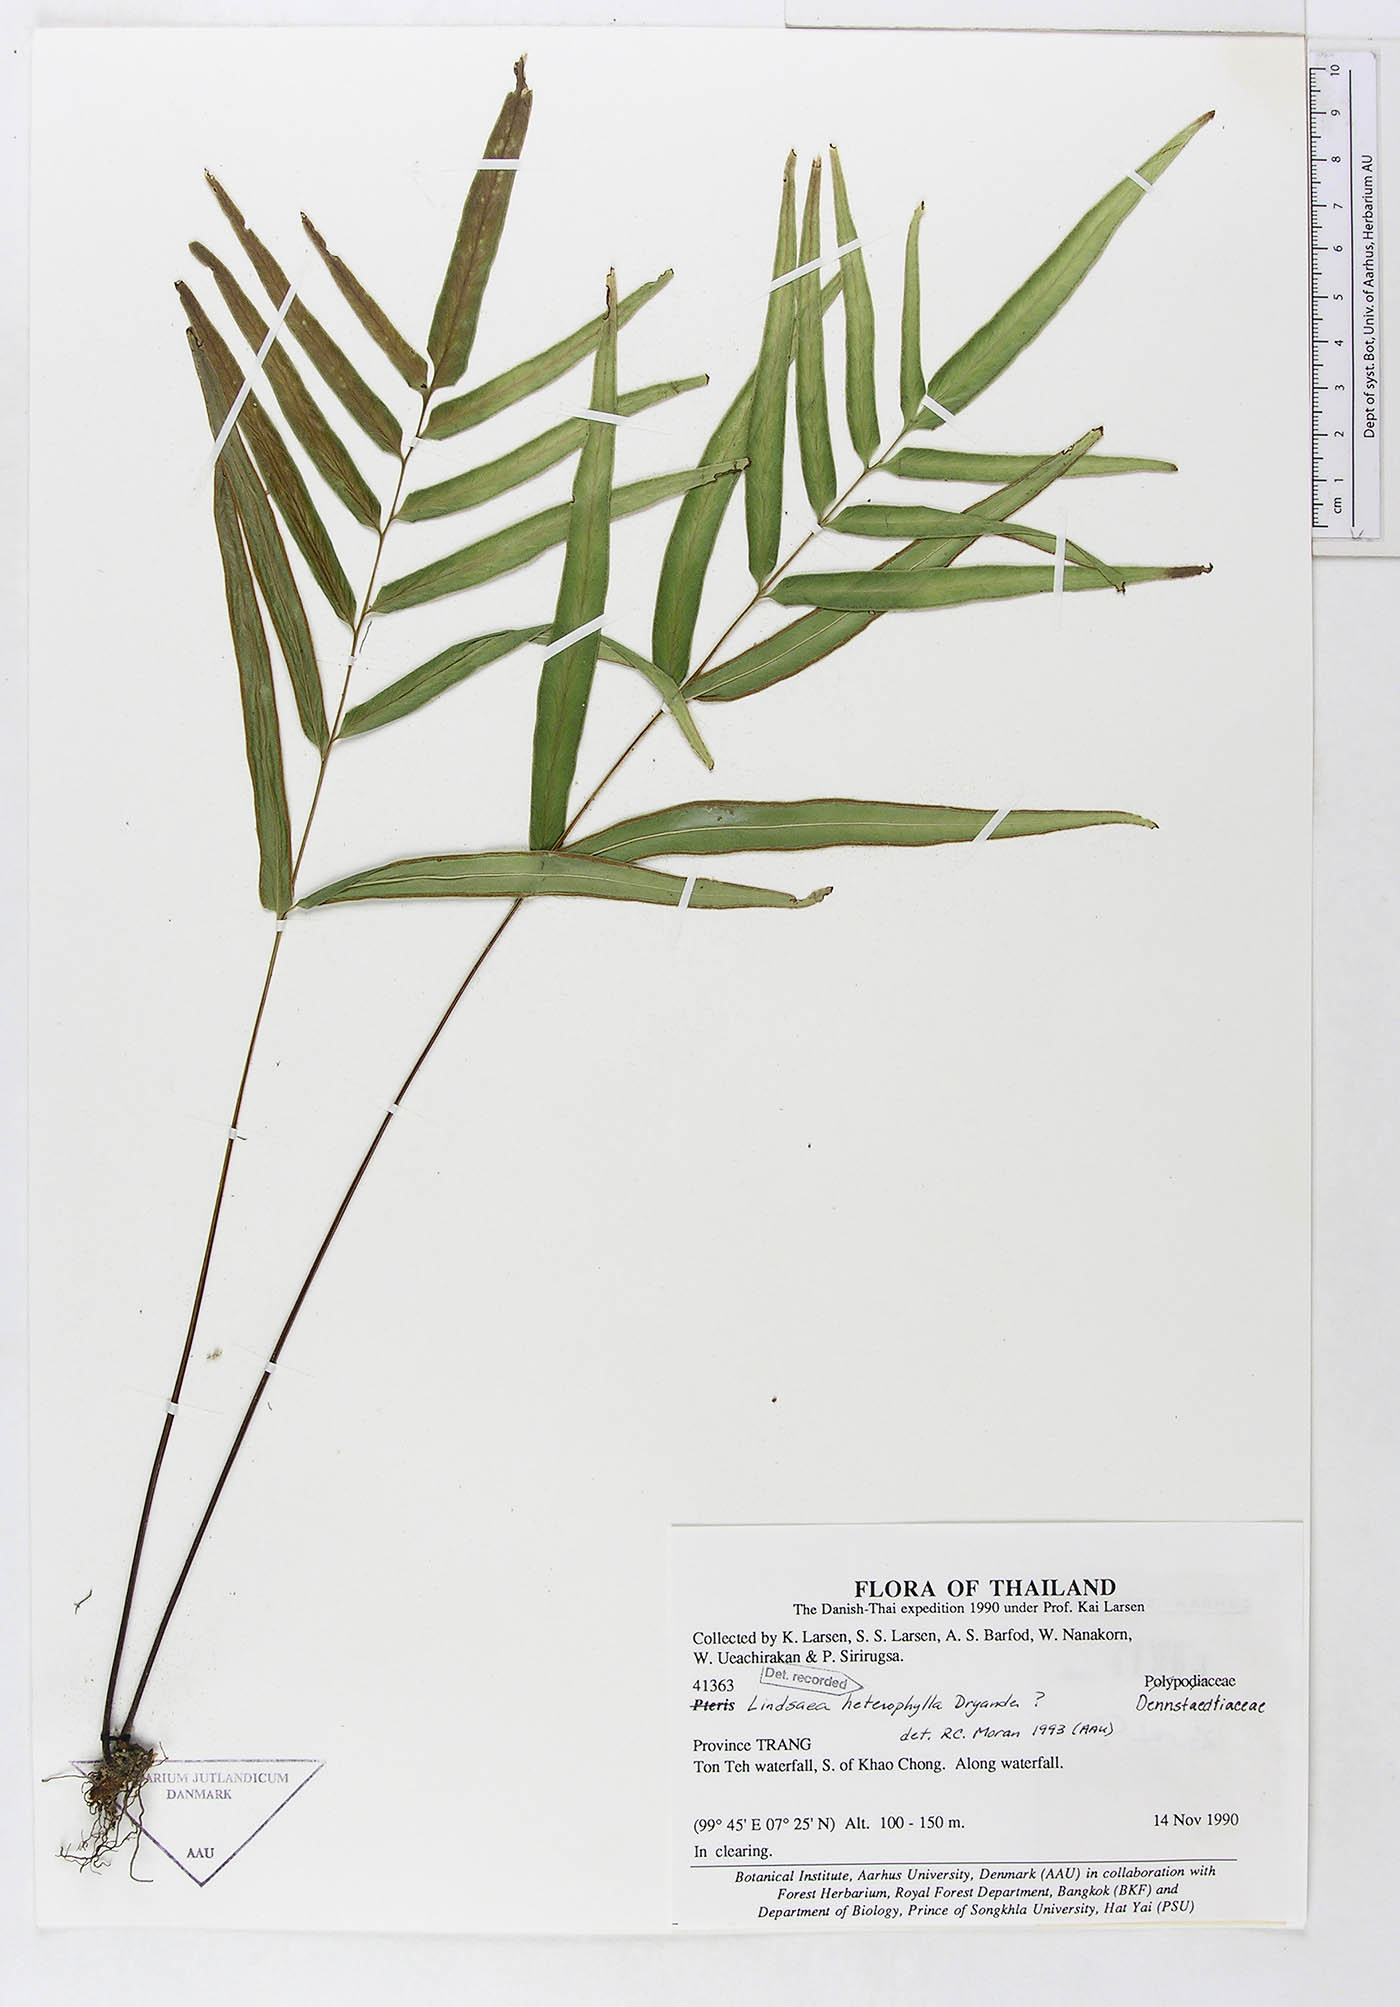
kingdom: Plantae
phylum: Tracheophyta
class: Polypodiopsida
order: Polypodiales
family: Lindsaeaceae
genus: Lindsaea
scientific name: Lindsaea heterophylla
